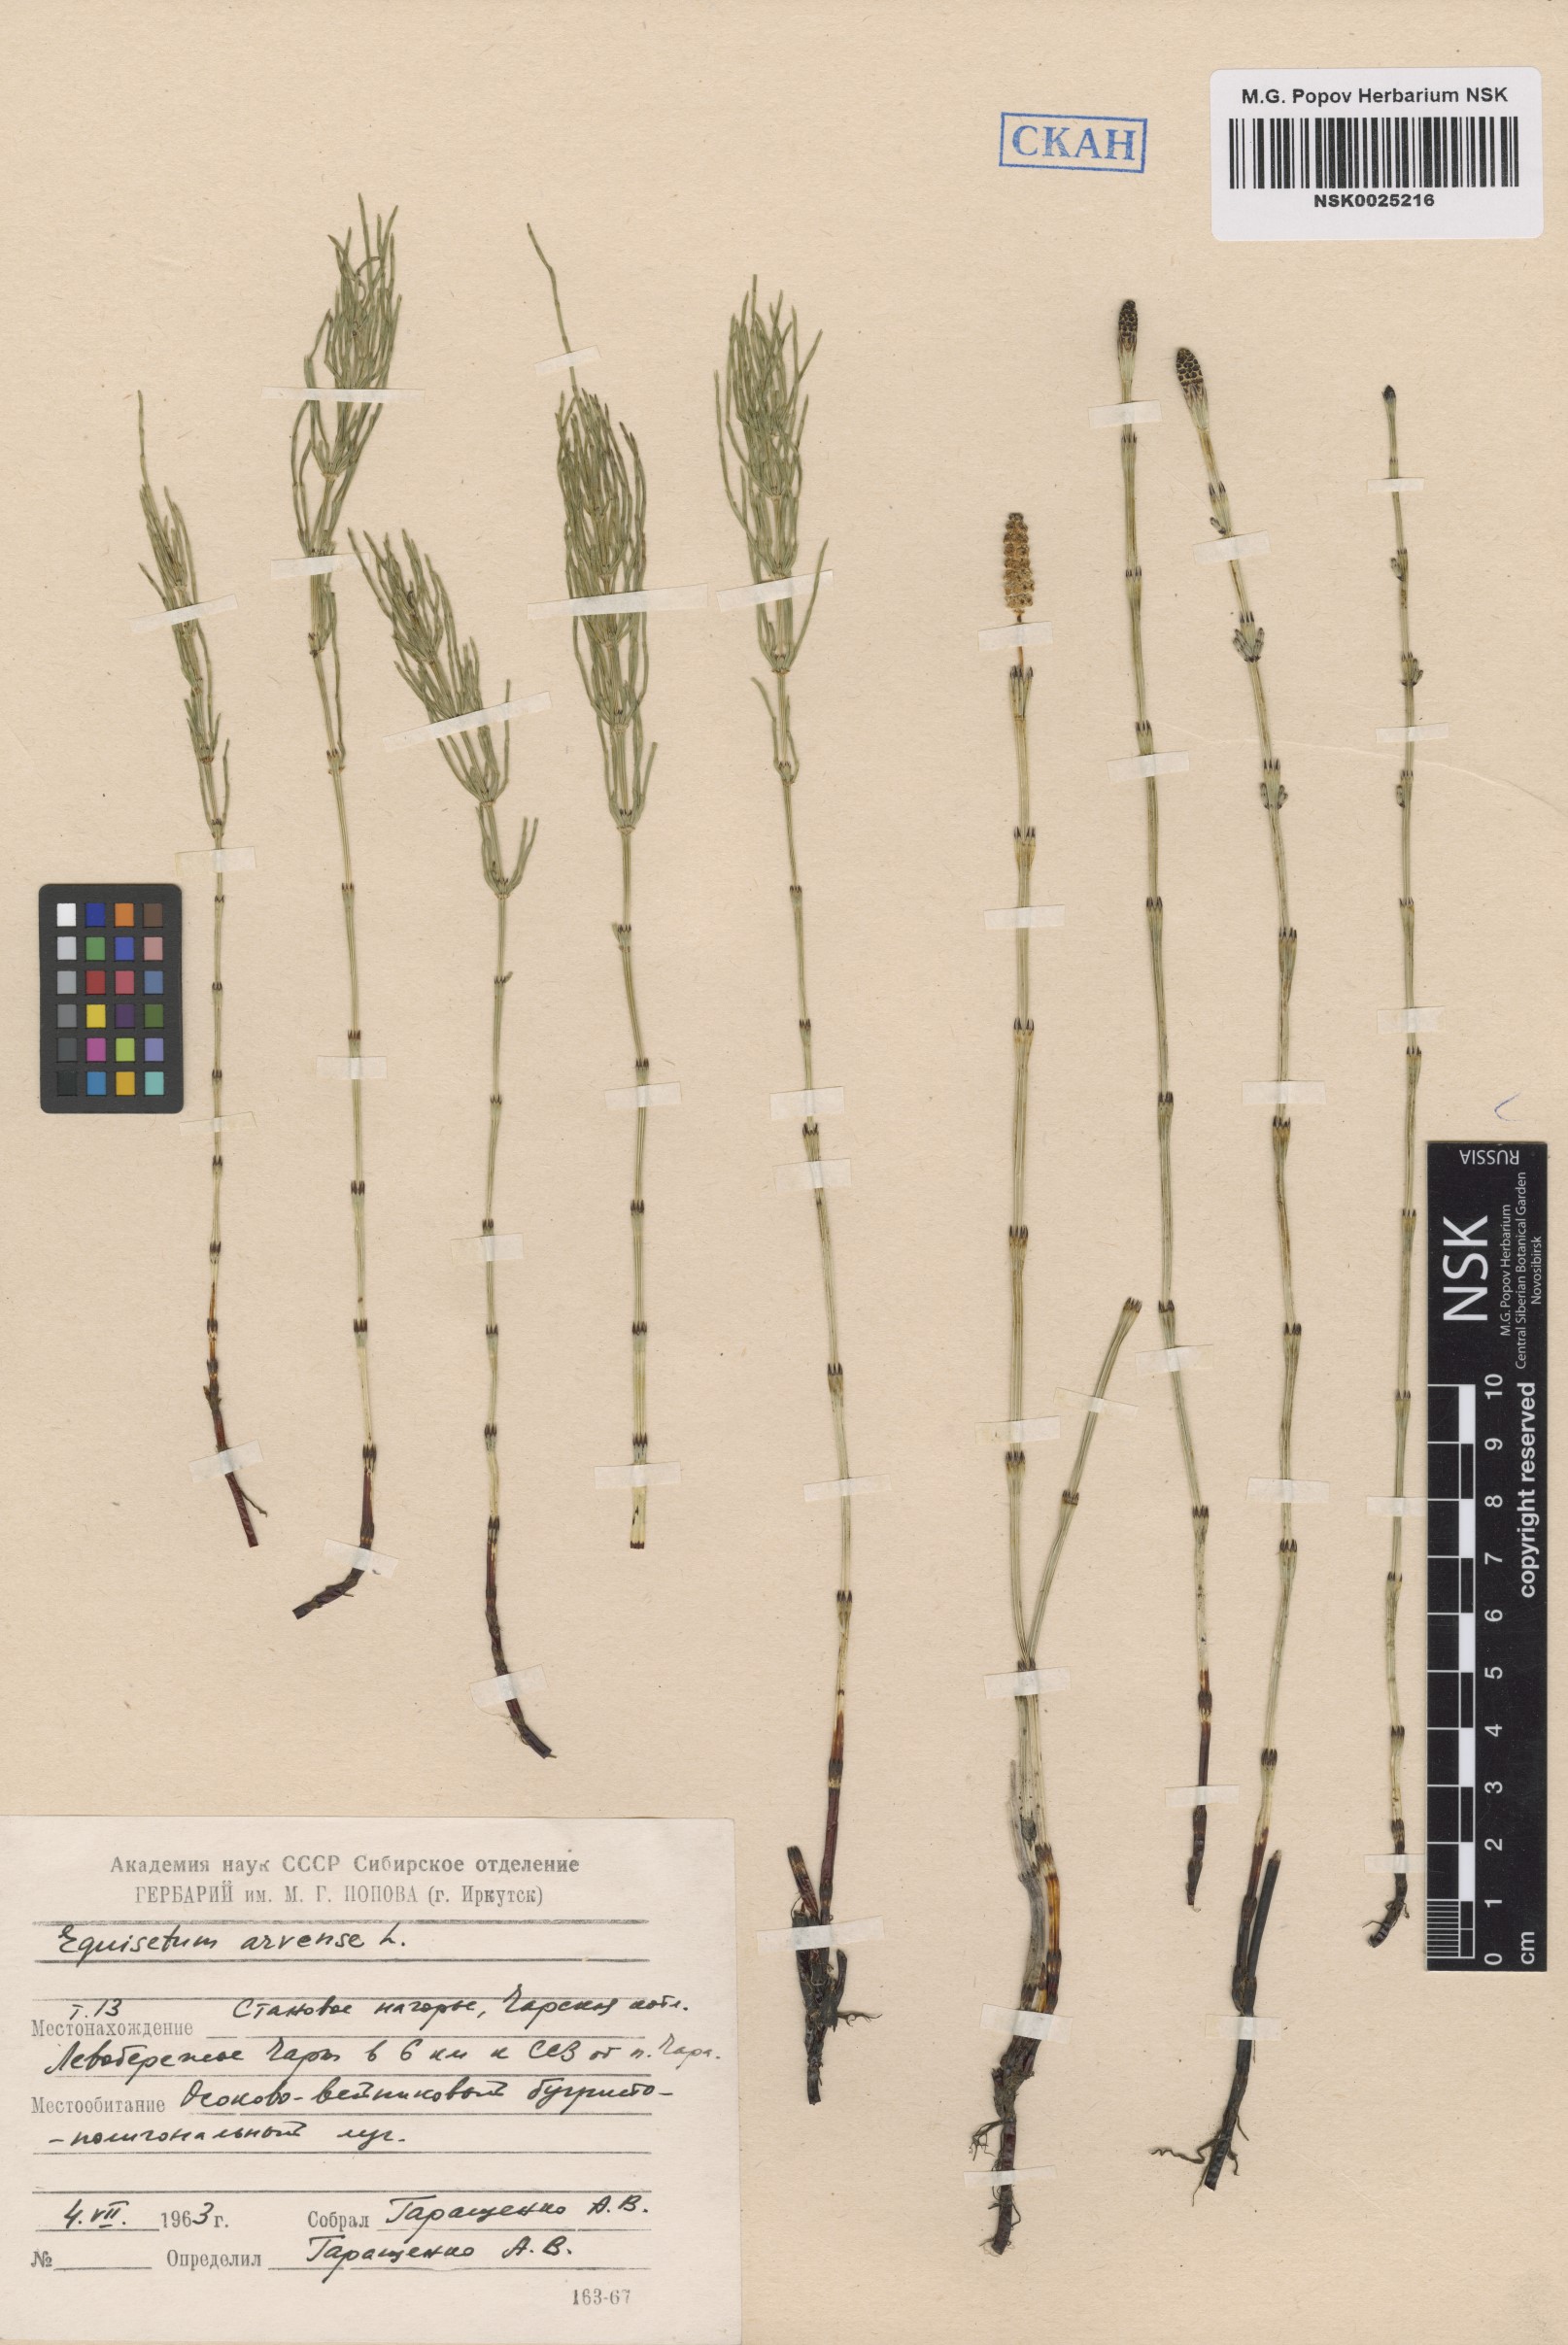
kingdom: Plantae
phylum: Tracheophyta
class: Polypodiopsida
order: Equisetales
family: Equisetaceae
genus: Equisetum
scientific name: Equisetum arvense
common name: Field horsetail
